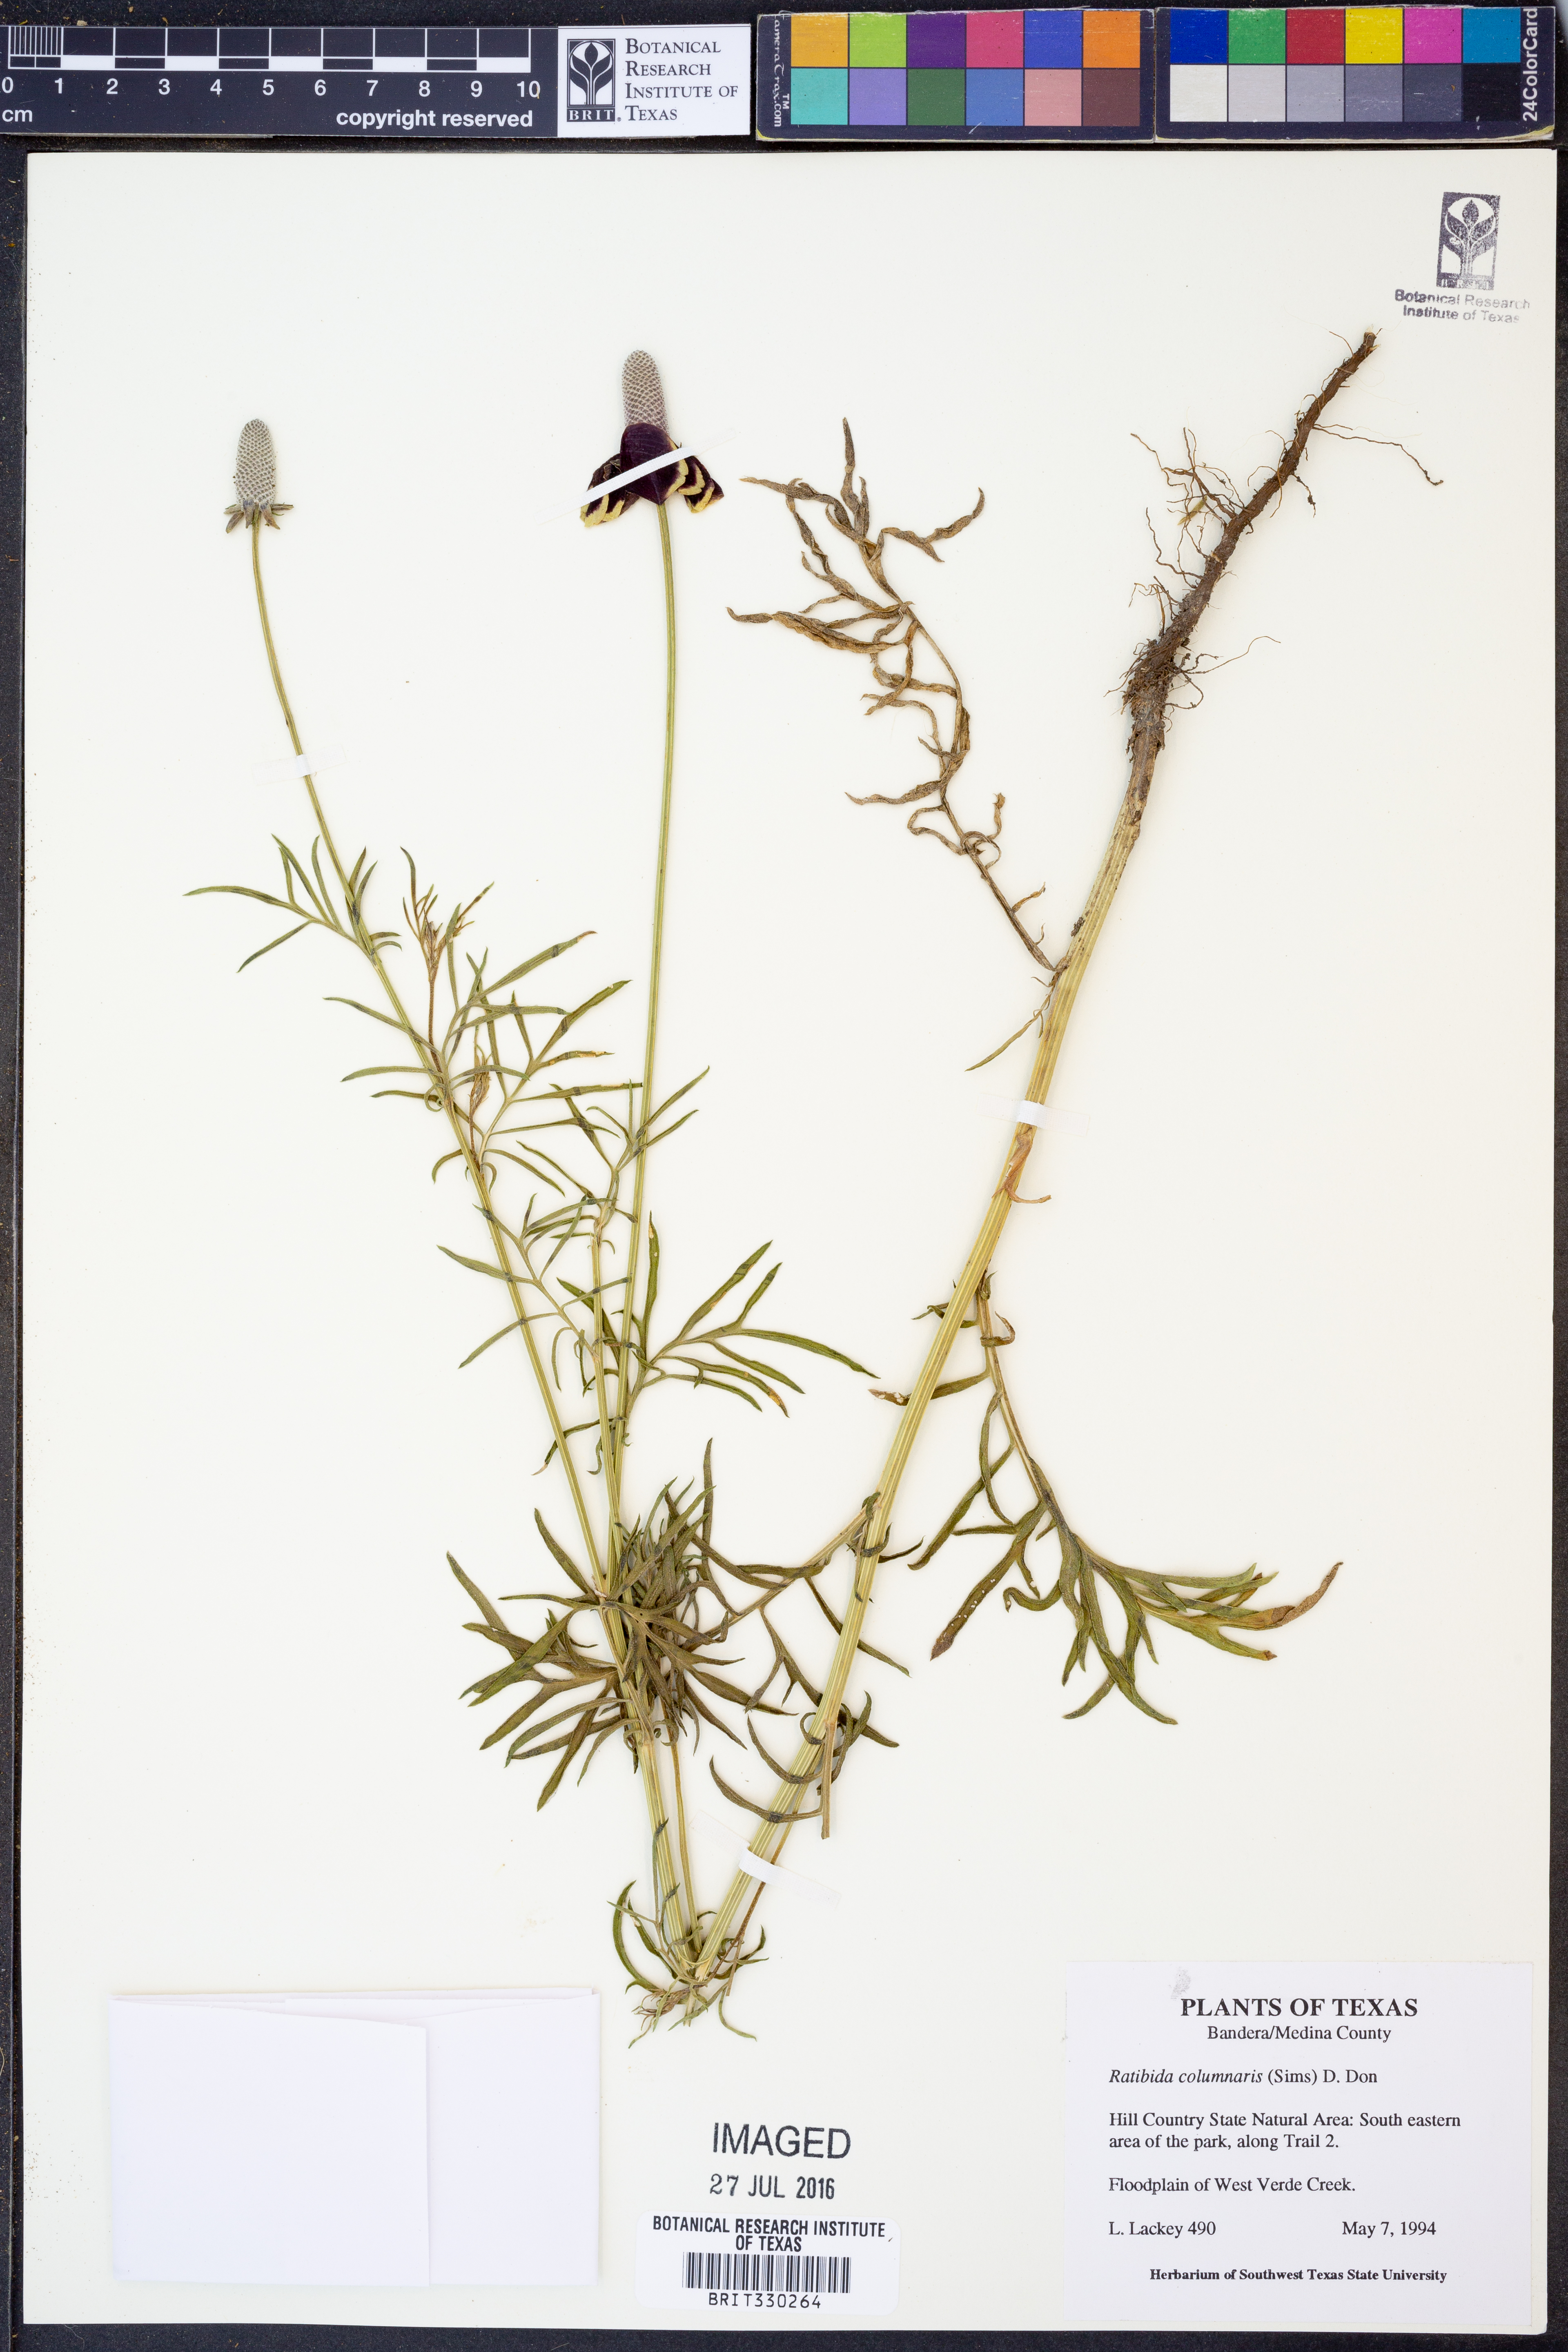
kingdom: Plantae
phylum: Tracheophyta
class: Magnoliopsida
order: Asterales
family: Asteraceae
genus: Ratibida
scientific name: Ratibida columnifera
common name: Prairie coneflower
